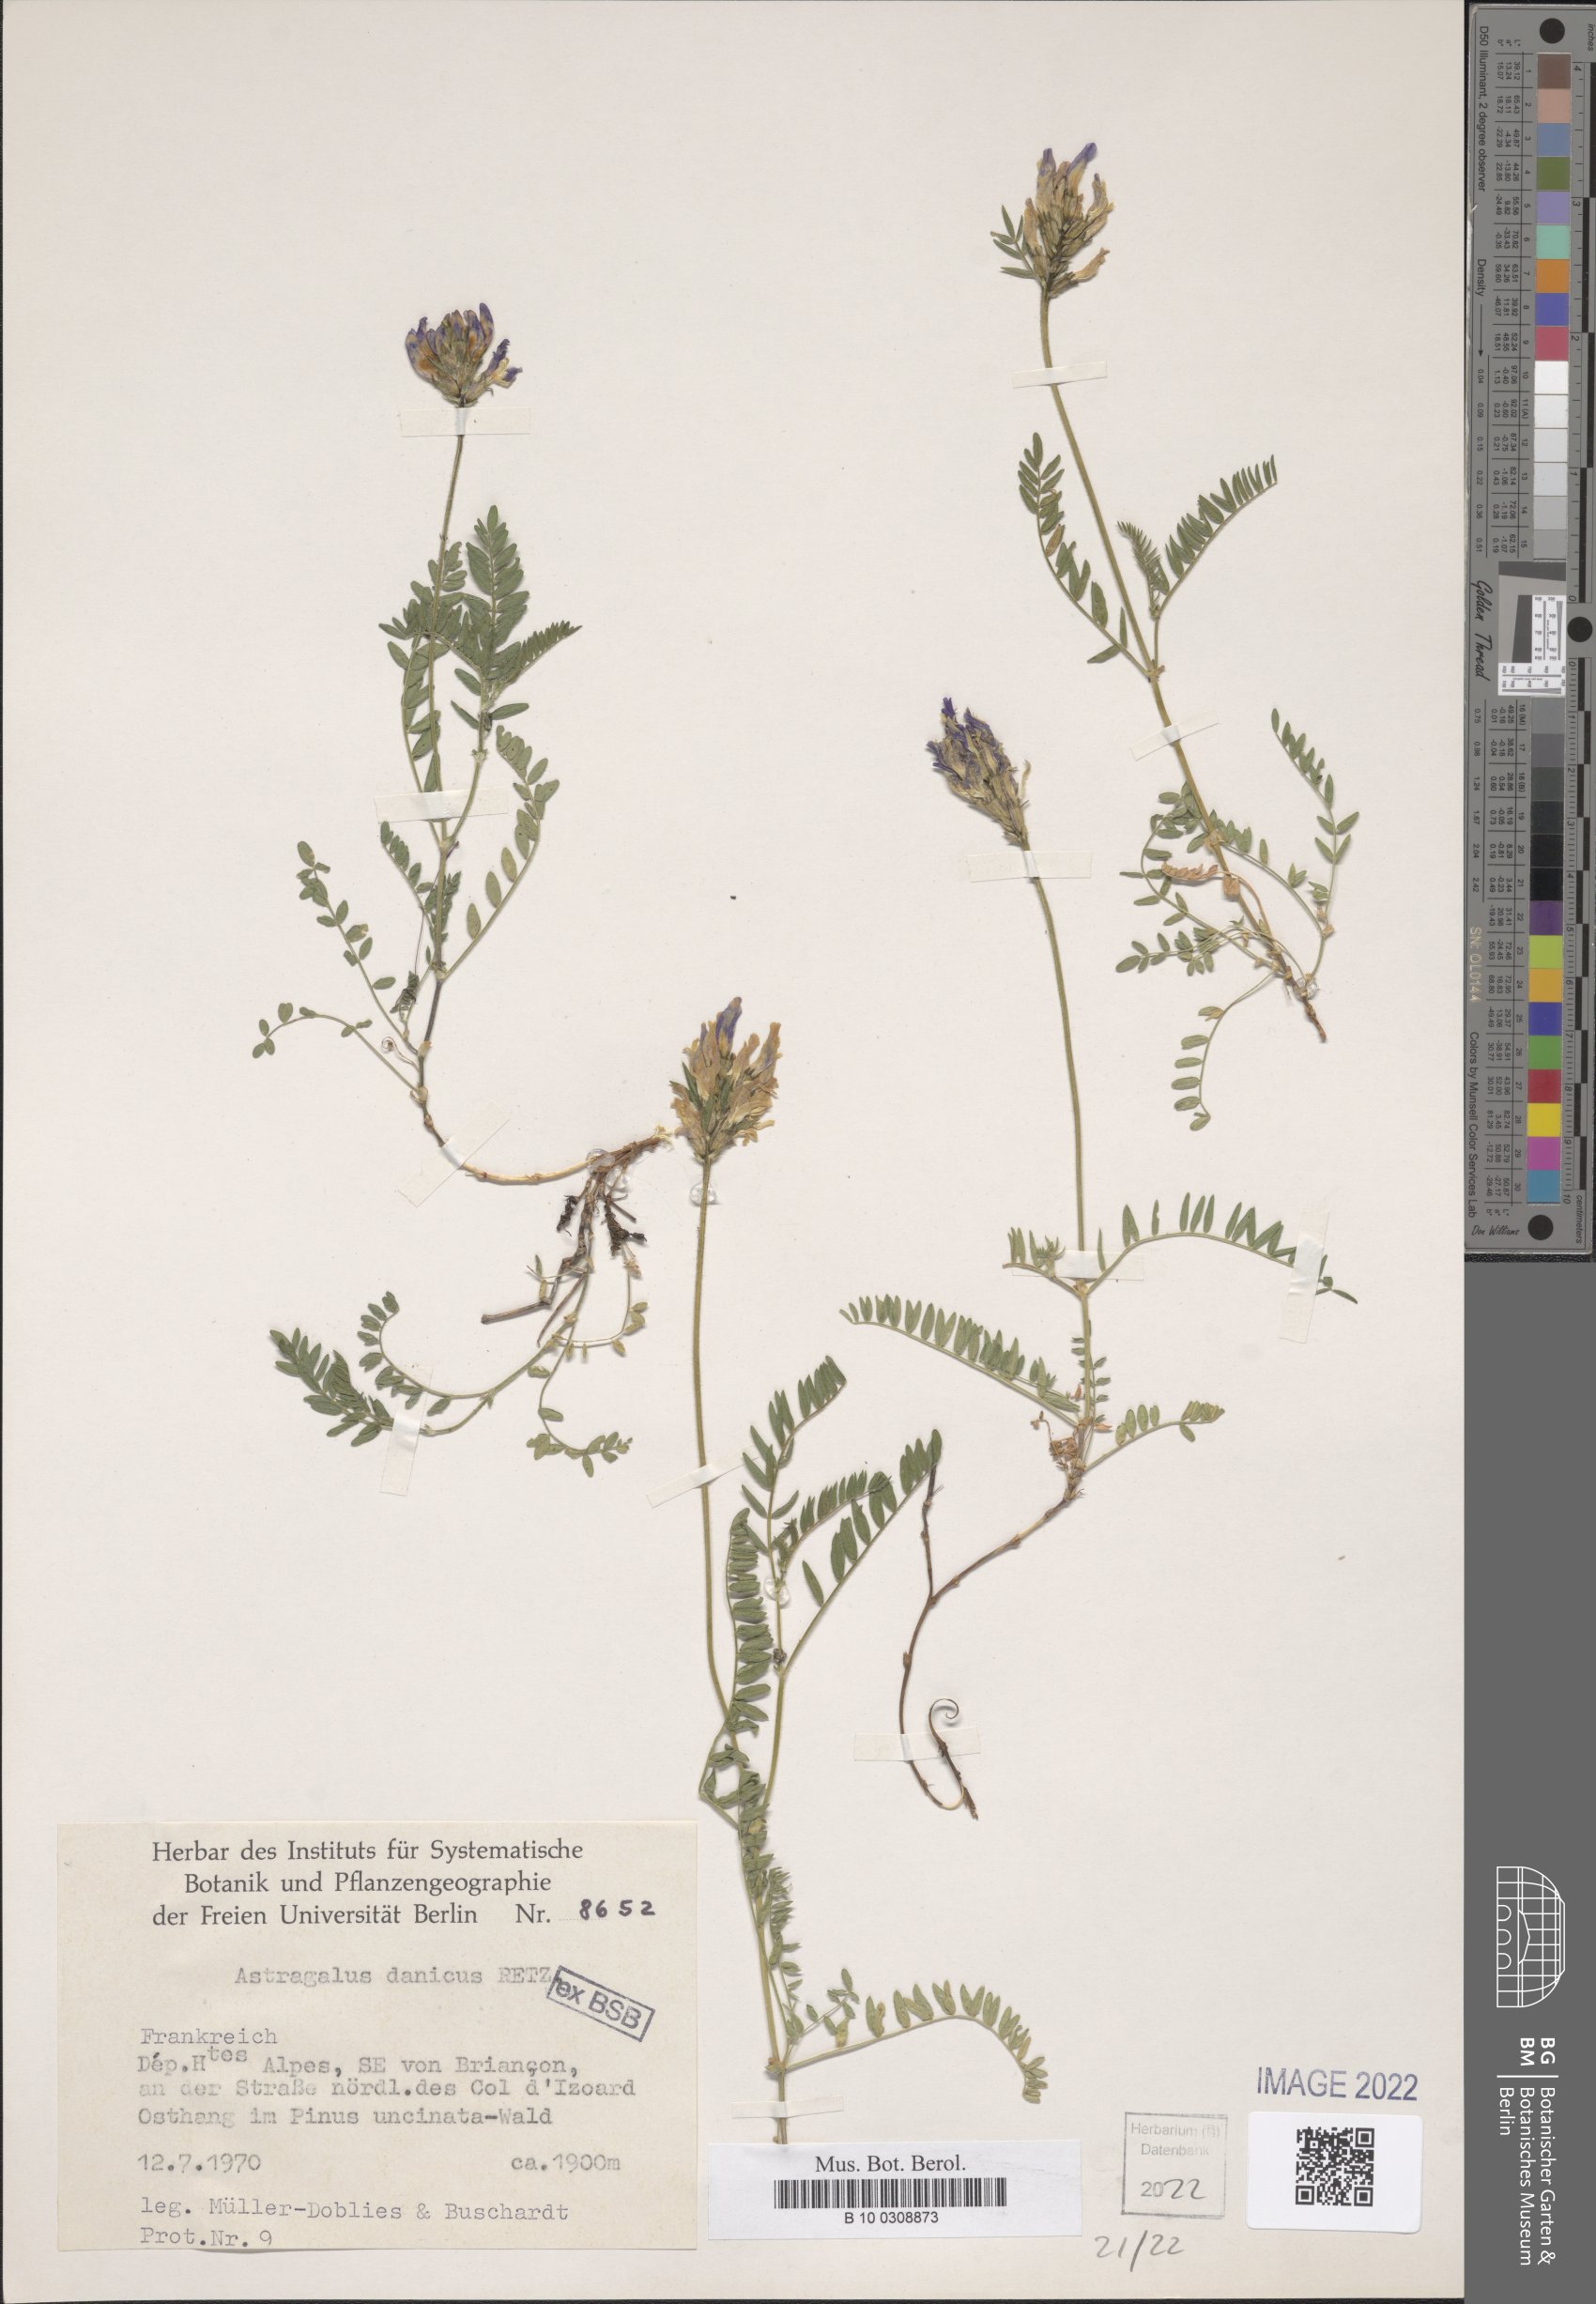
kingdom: Plantae
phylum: Tracheophyta
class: Magnoliopsida
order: Fabales
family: Fabaceae
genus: Astragalus
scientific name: Astragalus danicus
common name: Purple milk-vetch
